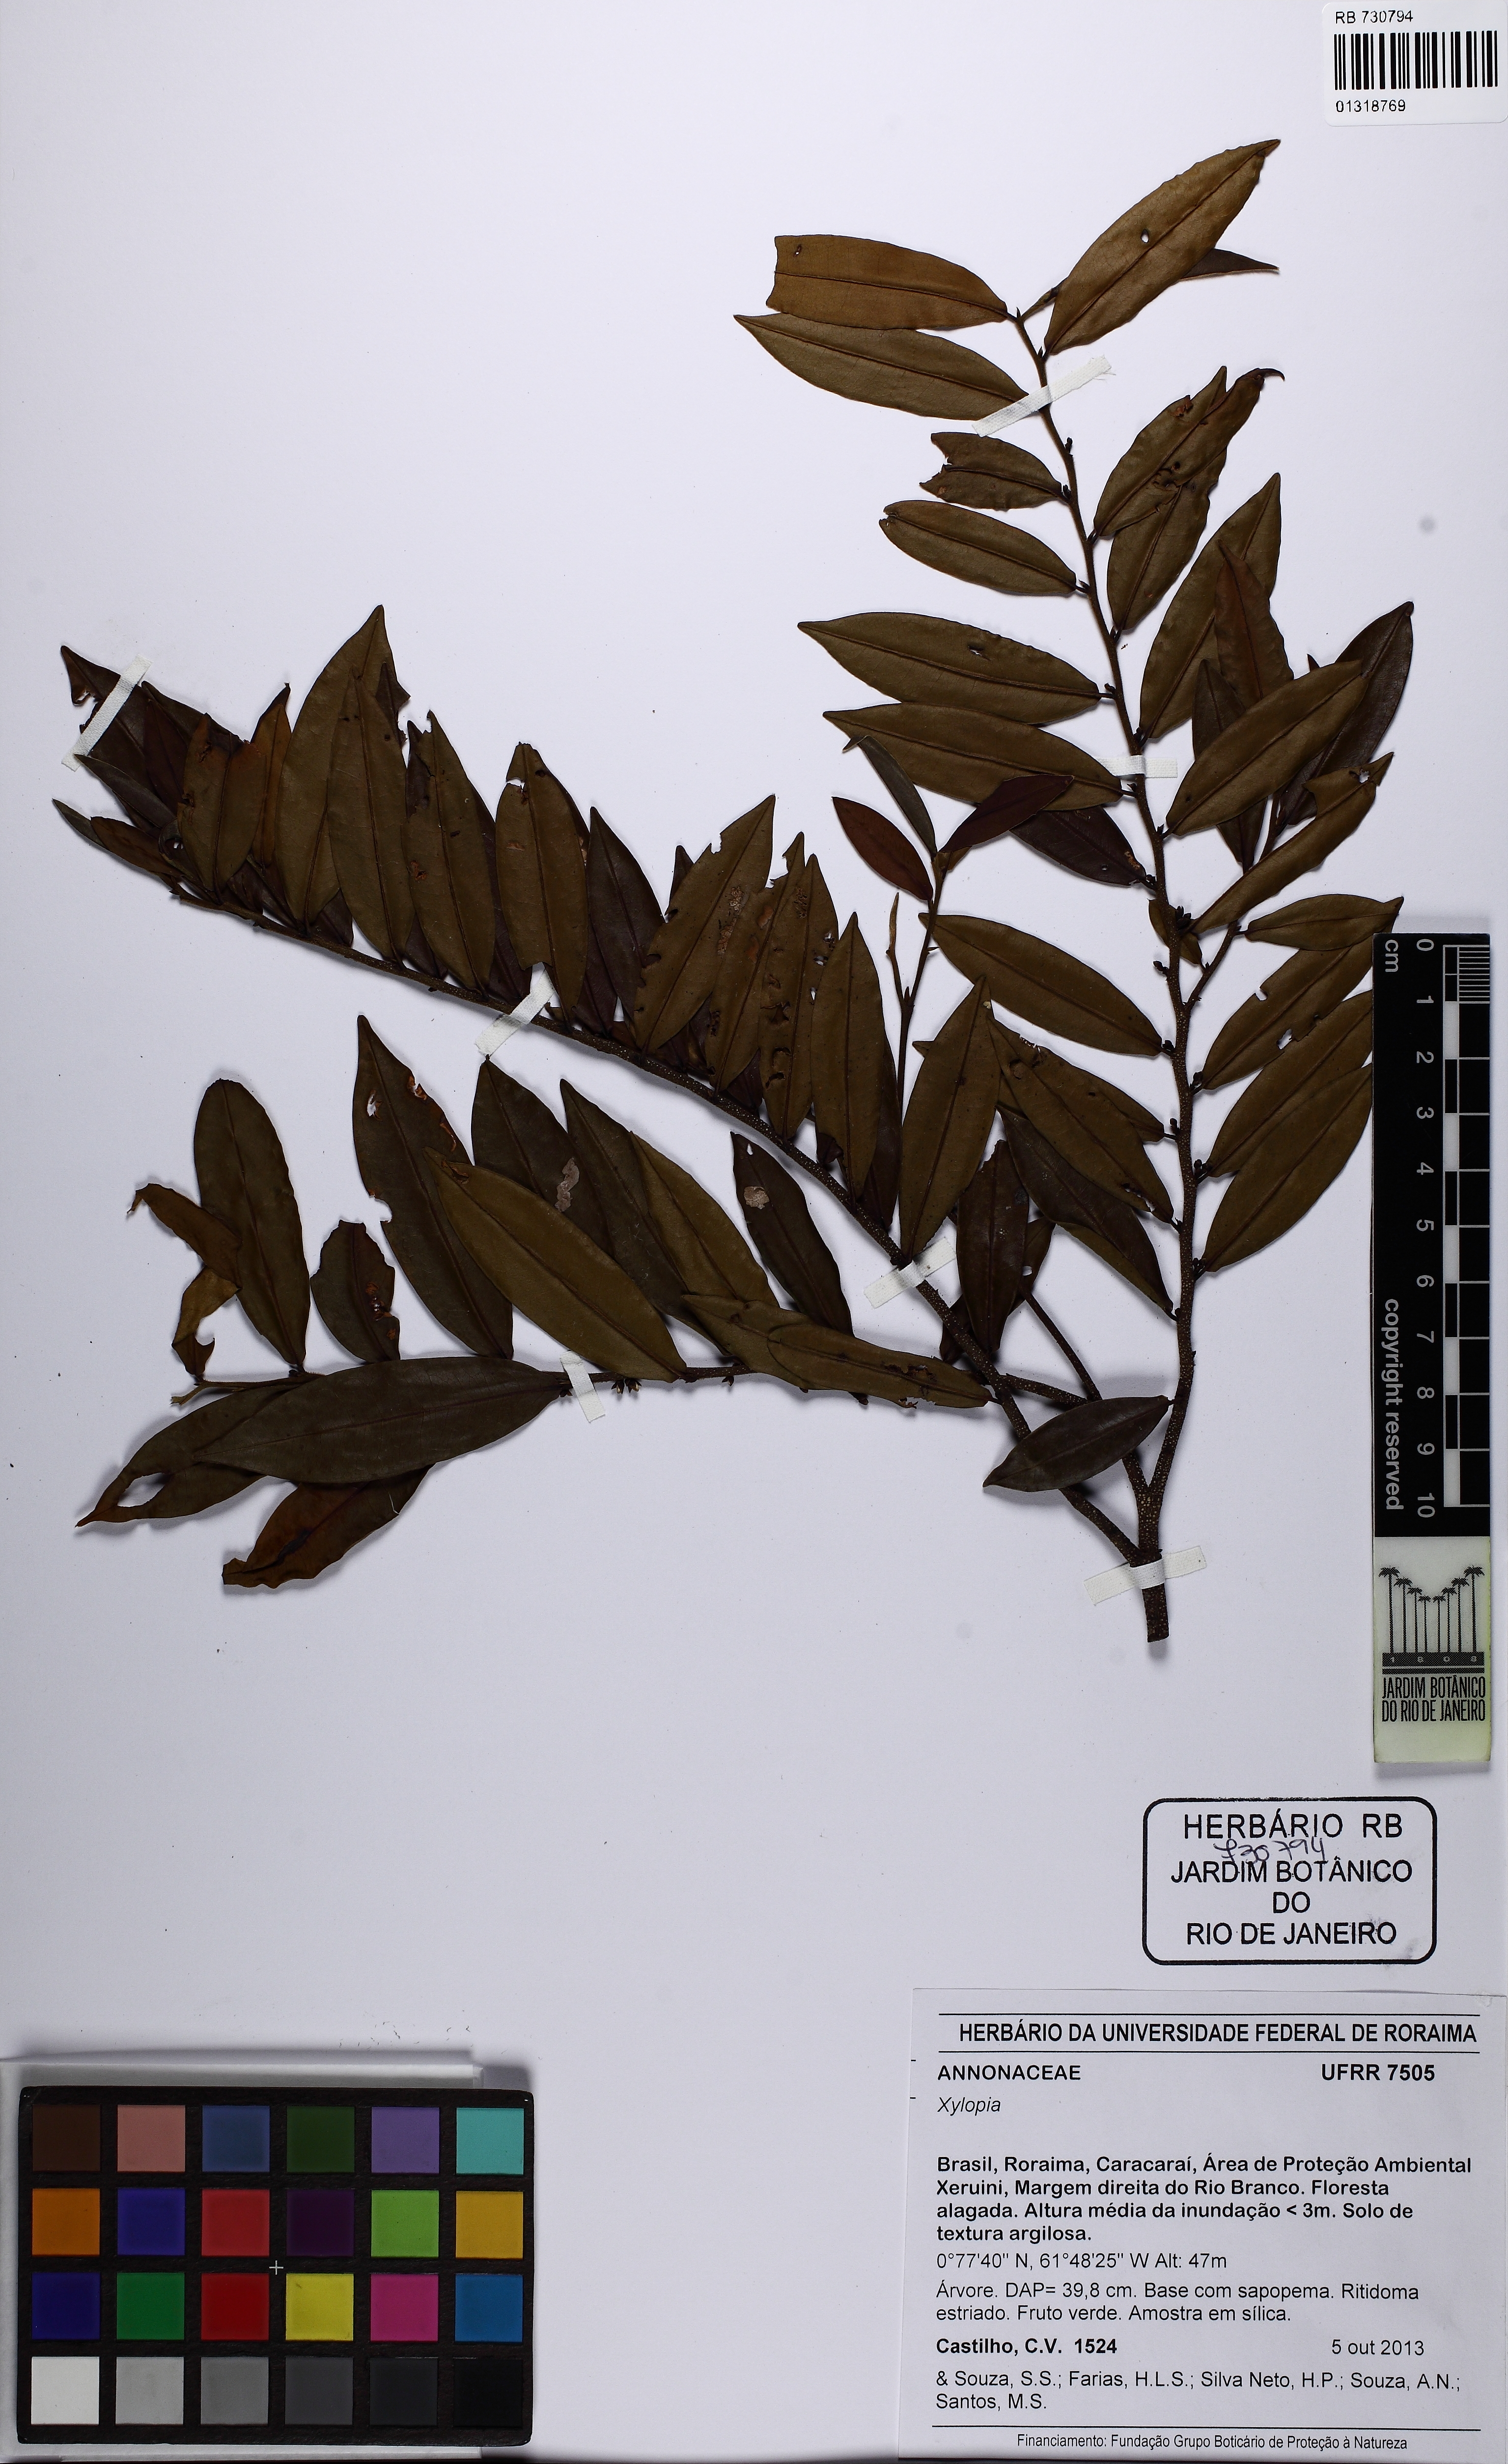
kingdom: Plantae
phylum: Tracheophyta
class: Magnoliopsida
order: Magnoliales
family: Annonaceae
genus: Xylopia
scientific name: Xylopia
